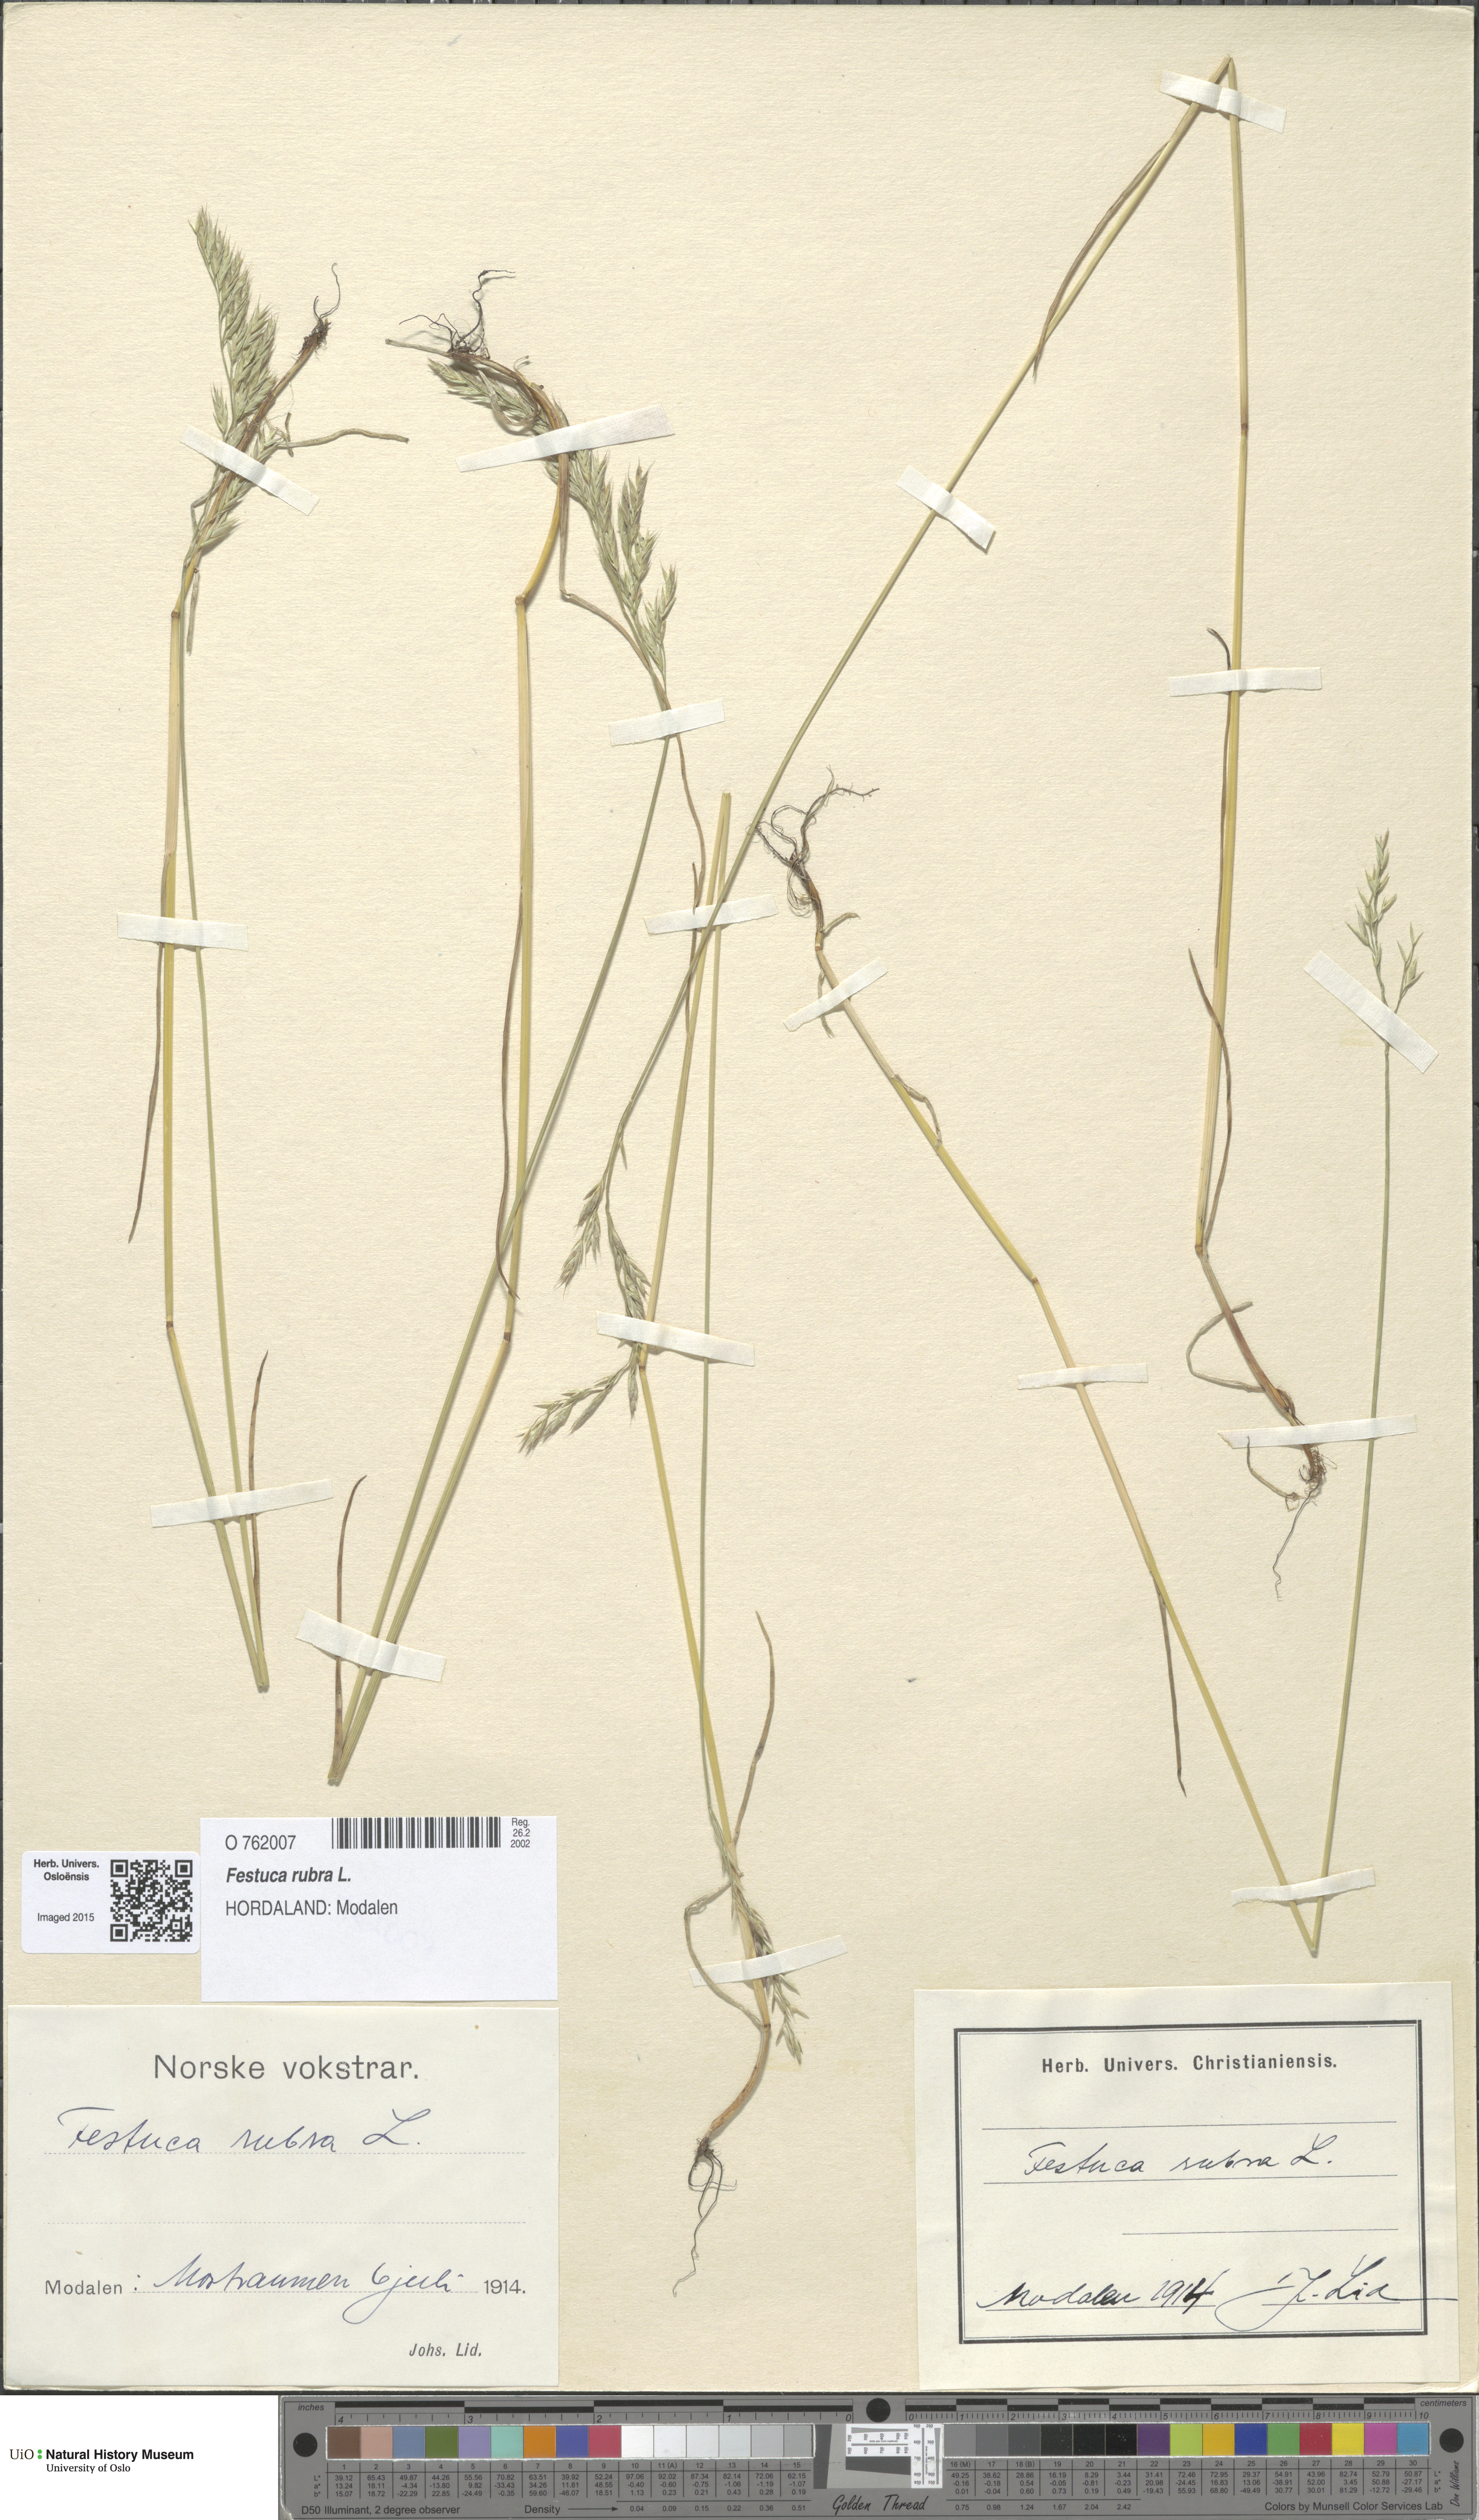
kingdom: Plantae
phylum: Tracheophyta
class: Liliopsida
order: Poales
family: Poaceae
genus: Festuca
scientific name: Festuca rubra
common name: Red fescue
